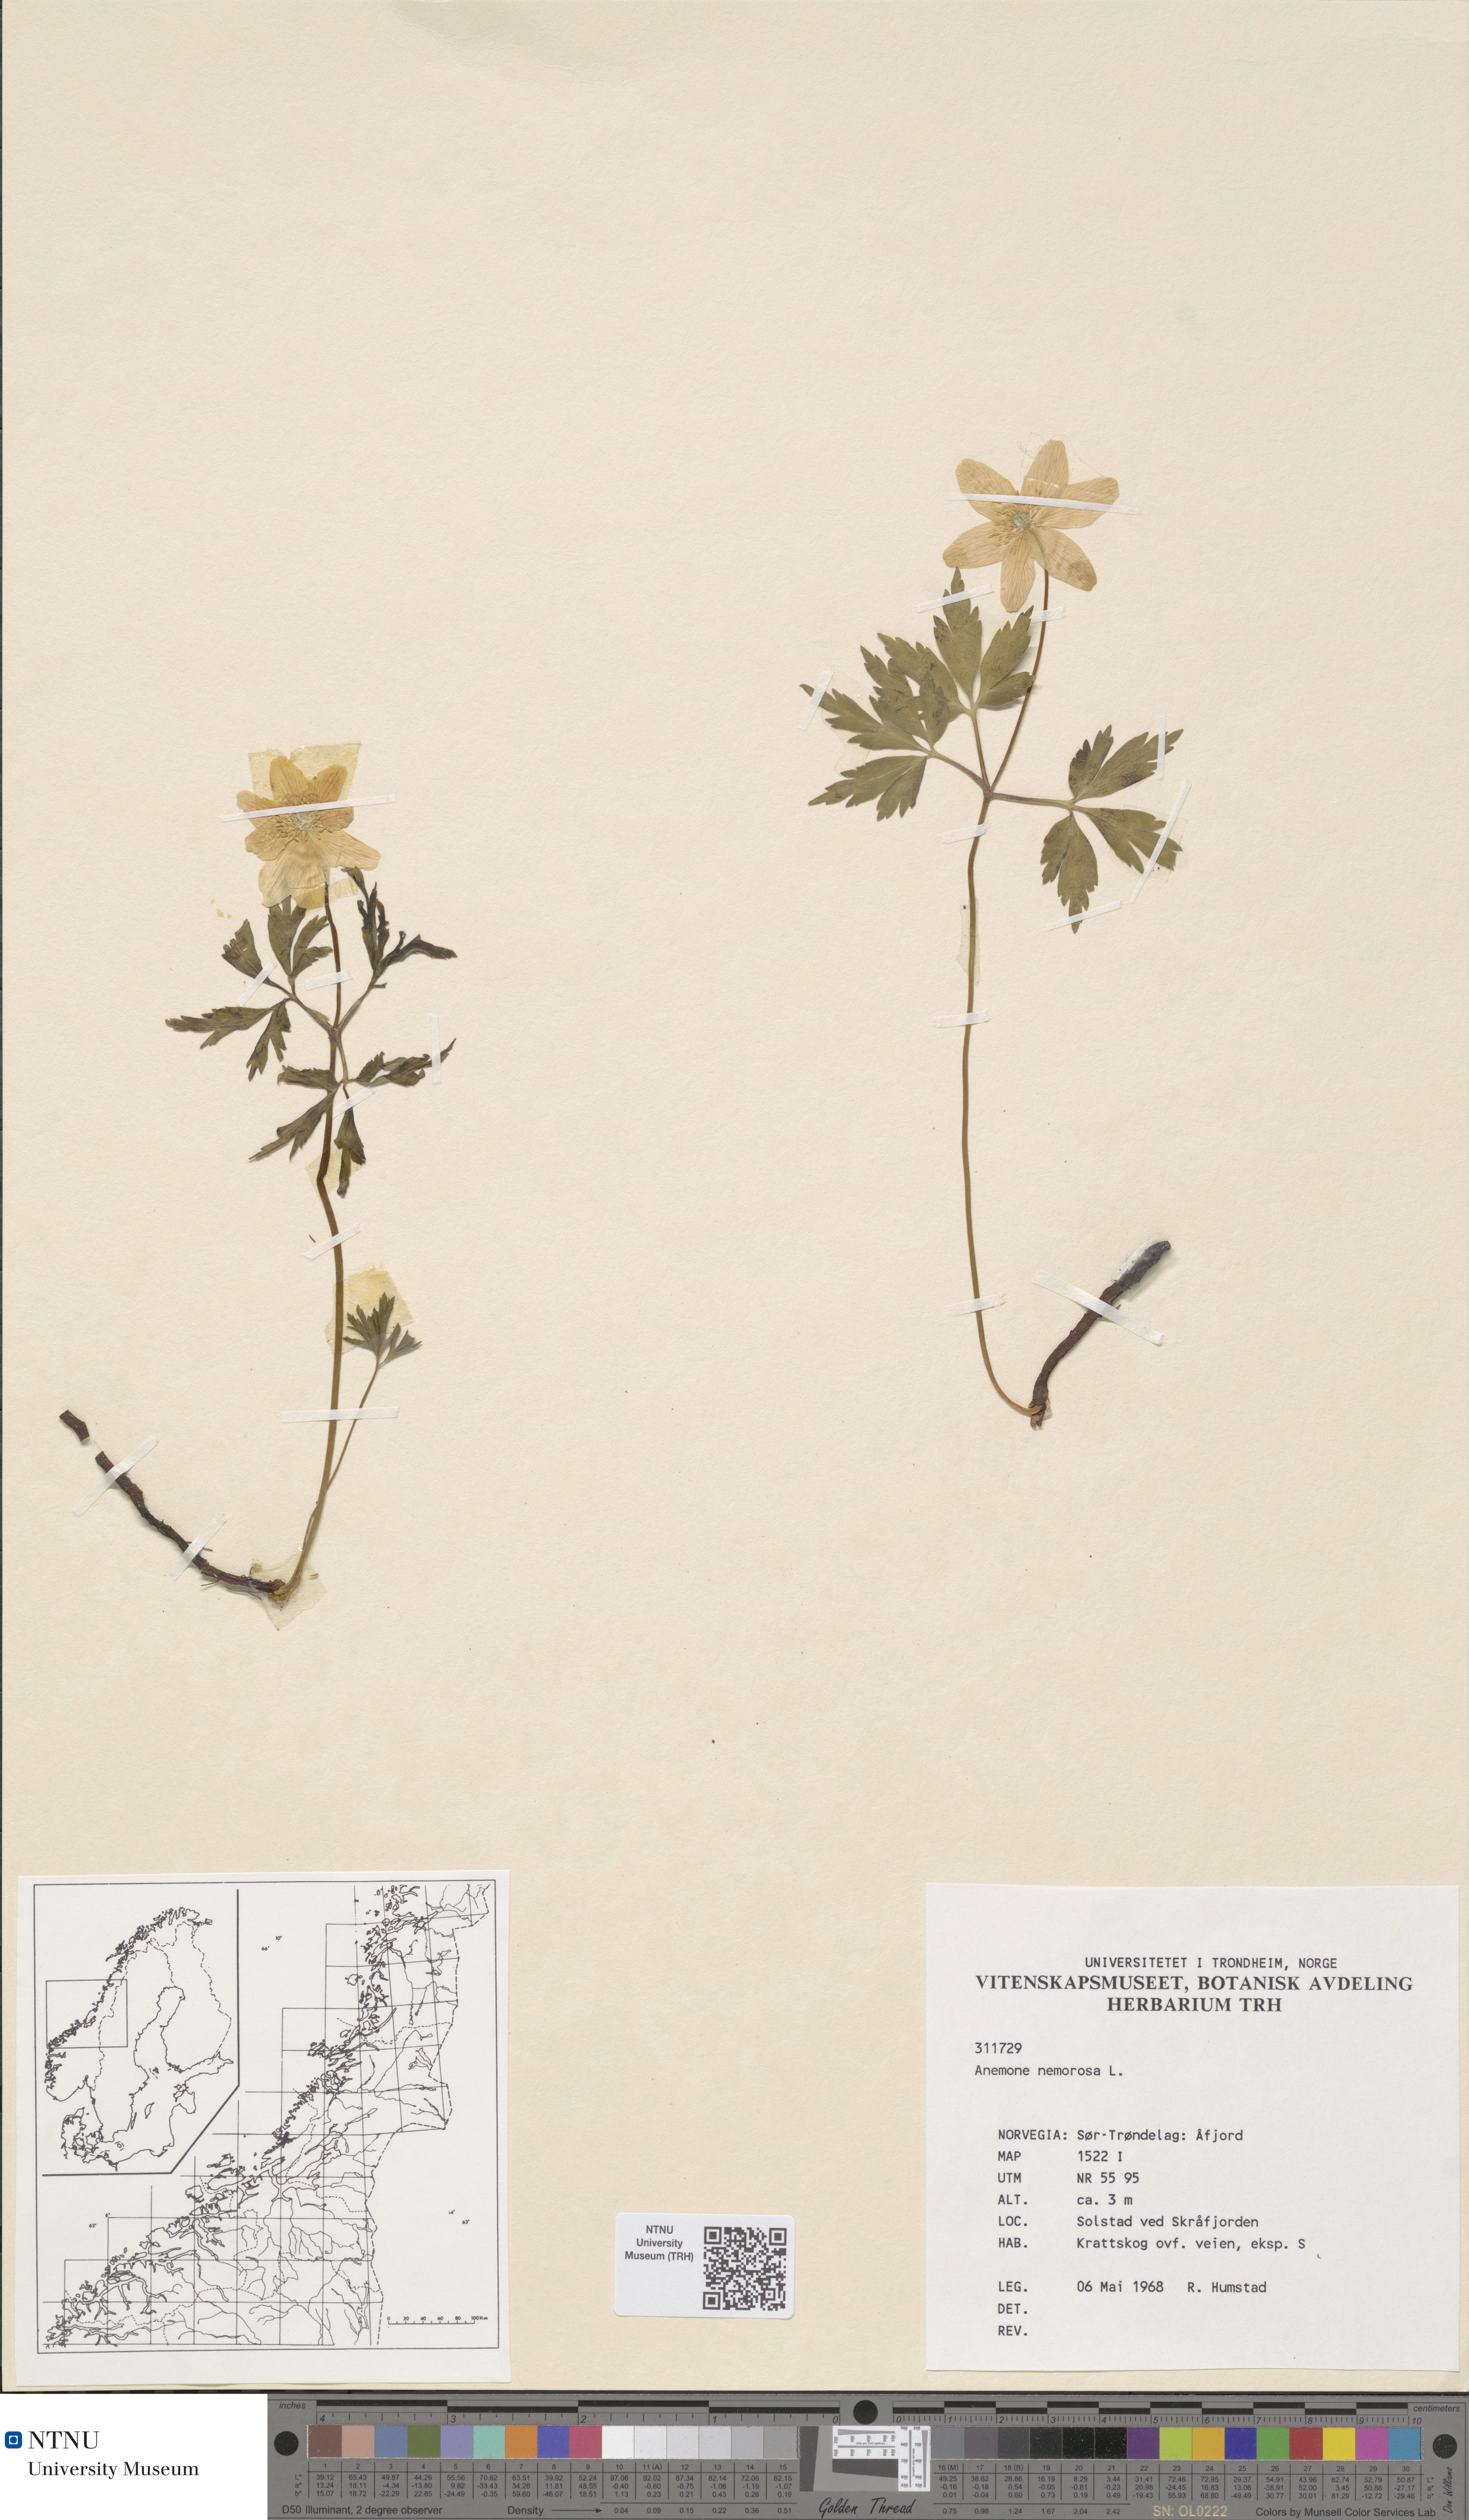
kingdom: Plantae
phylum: Tracheophyta
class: Magnoliopsida
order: Ranunculales
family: Ranunculaceae
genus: Anemone
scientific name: Anemone nemorosa
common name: Wood anemone
